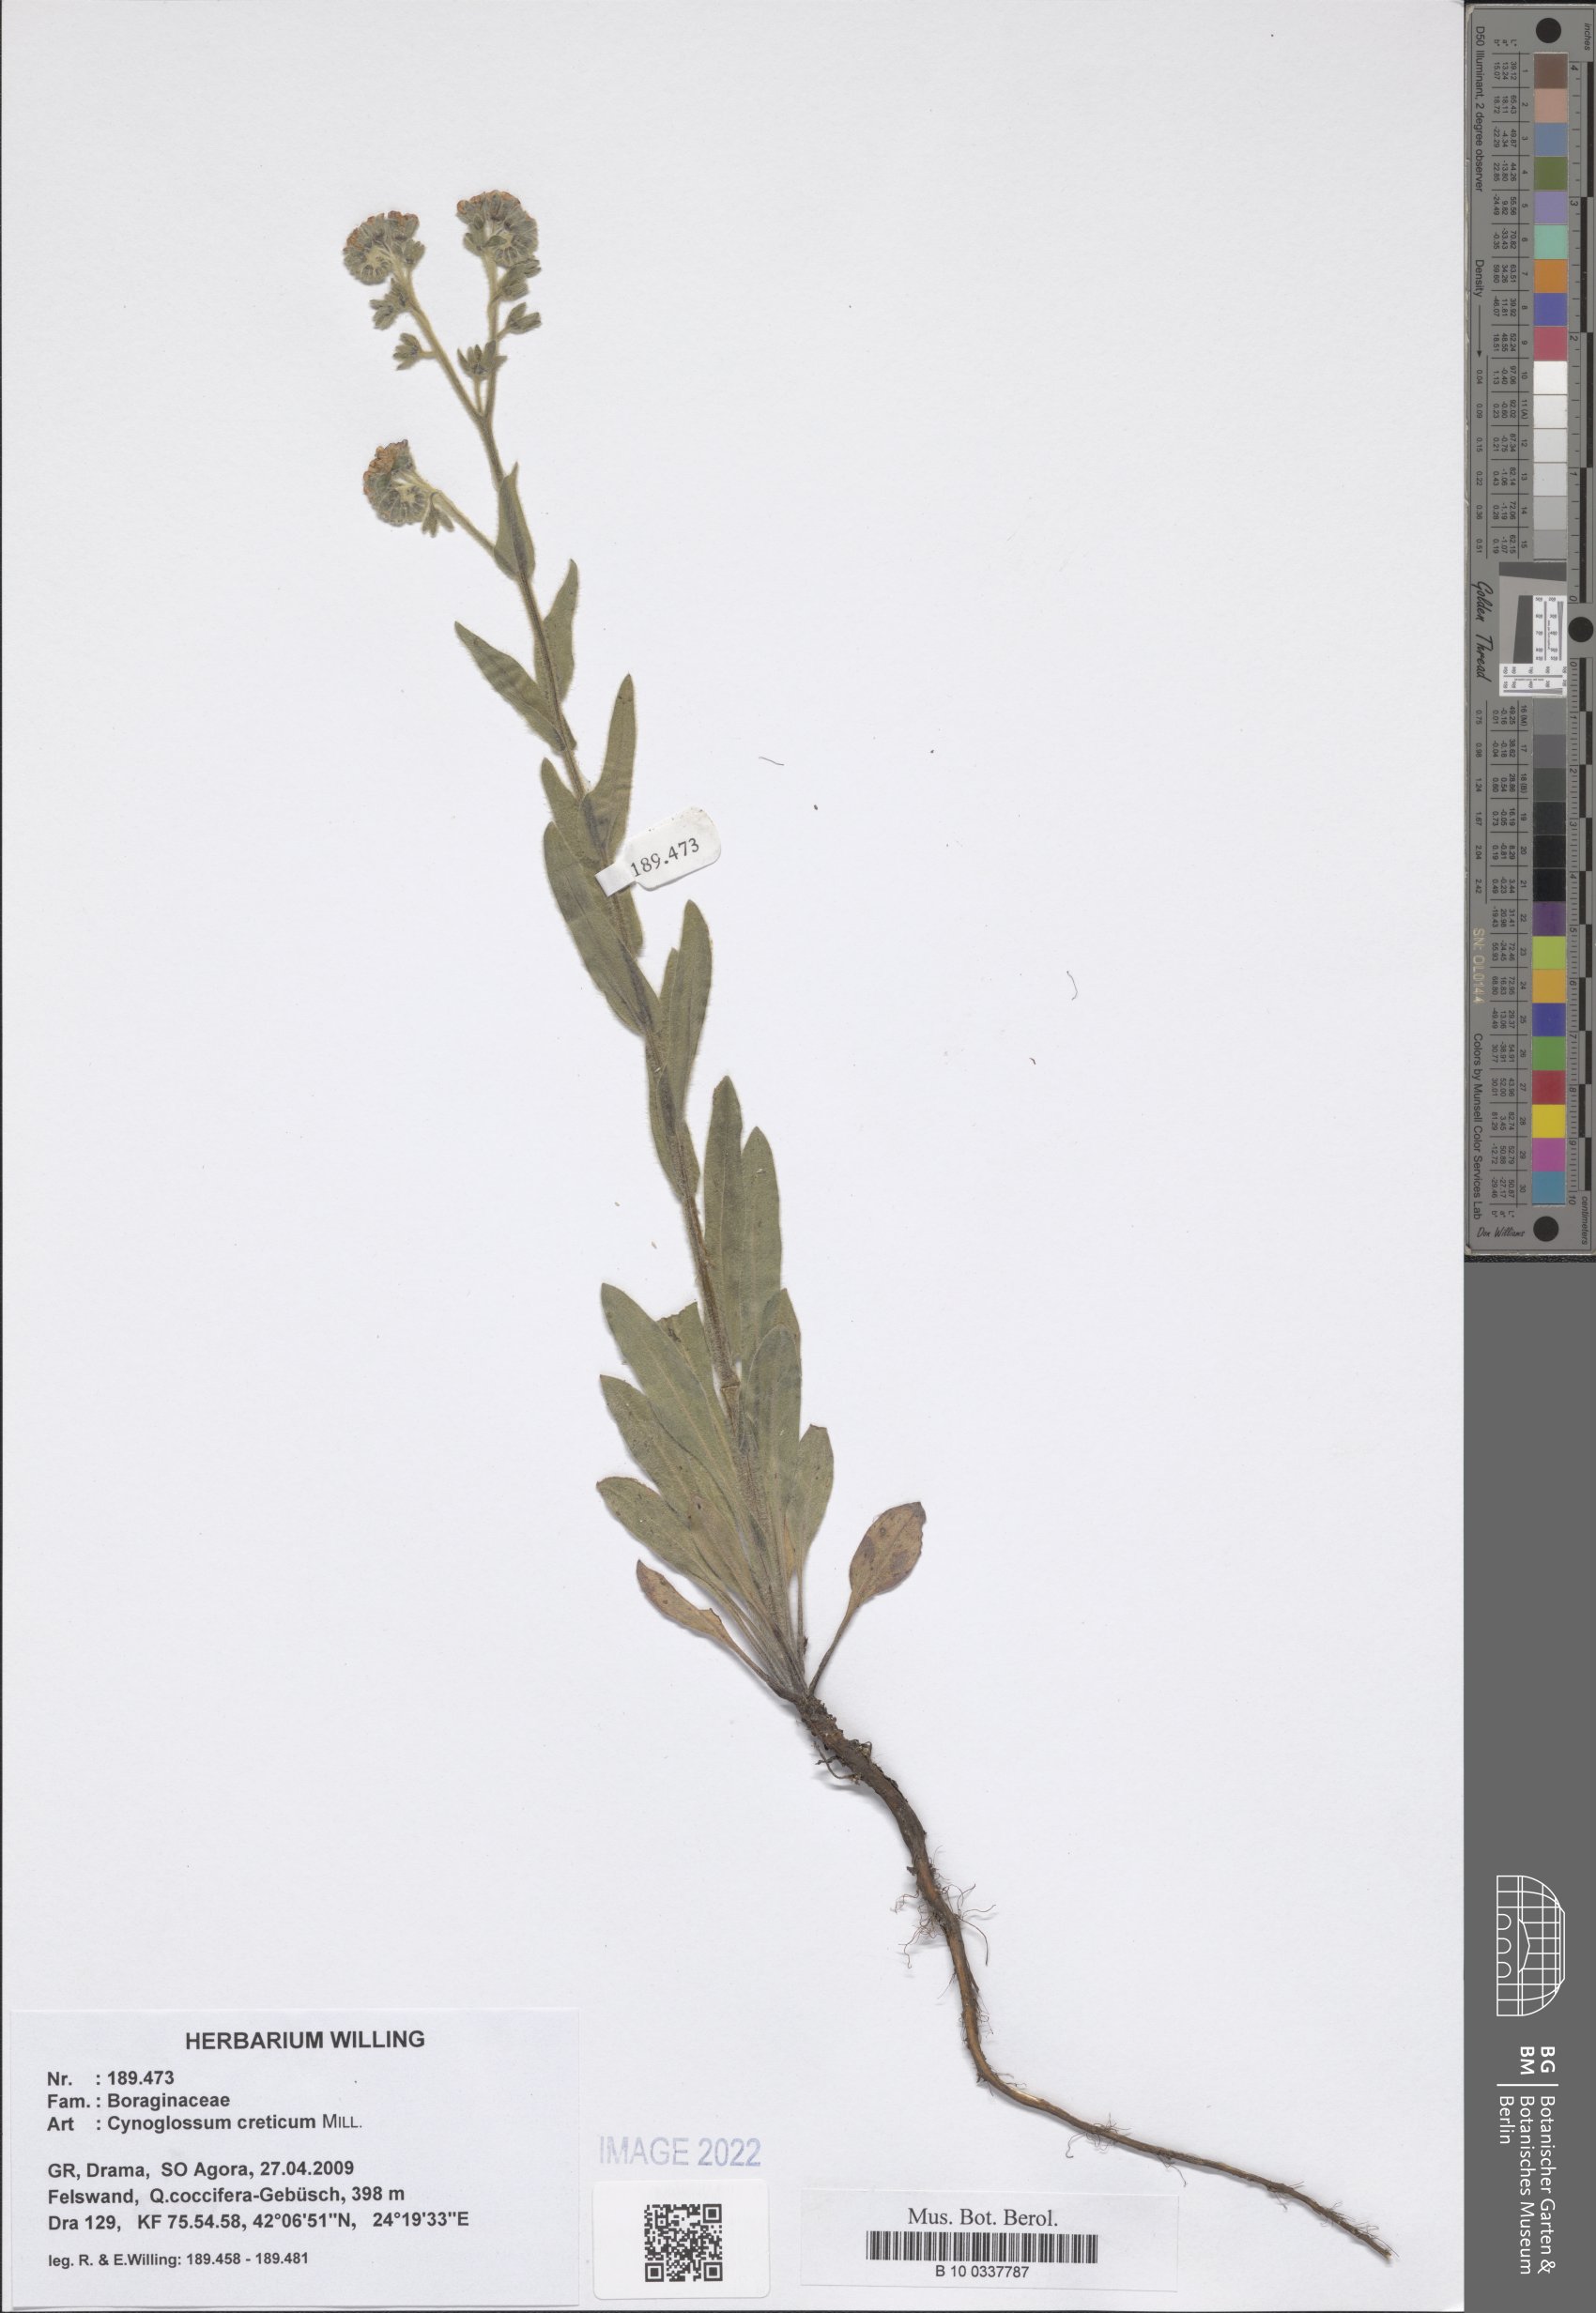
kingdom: Plantae
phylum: Tracheophyta
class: Magnoliopsida
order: Boraginales
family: Boraginaceae
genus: Cynoglossum
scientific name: Cynoglossum creticum
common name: Blue hound's tongue
